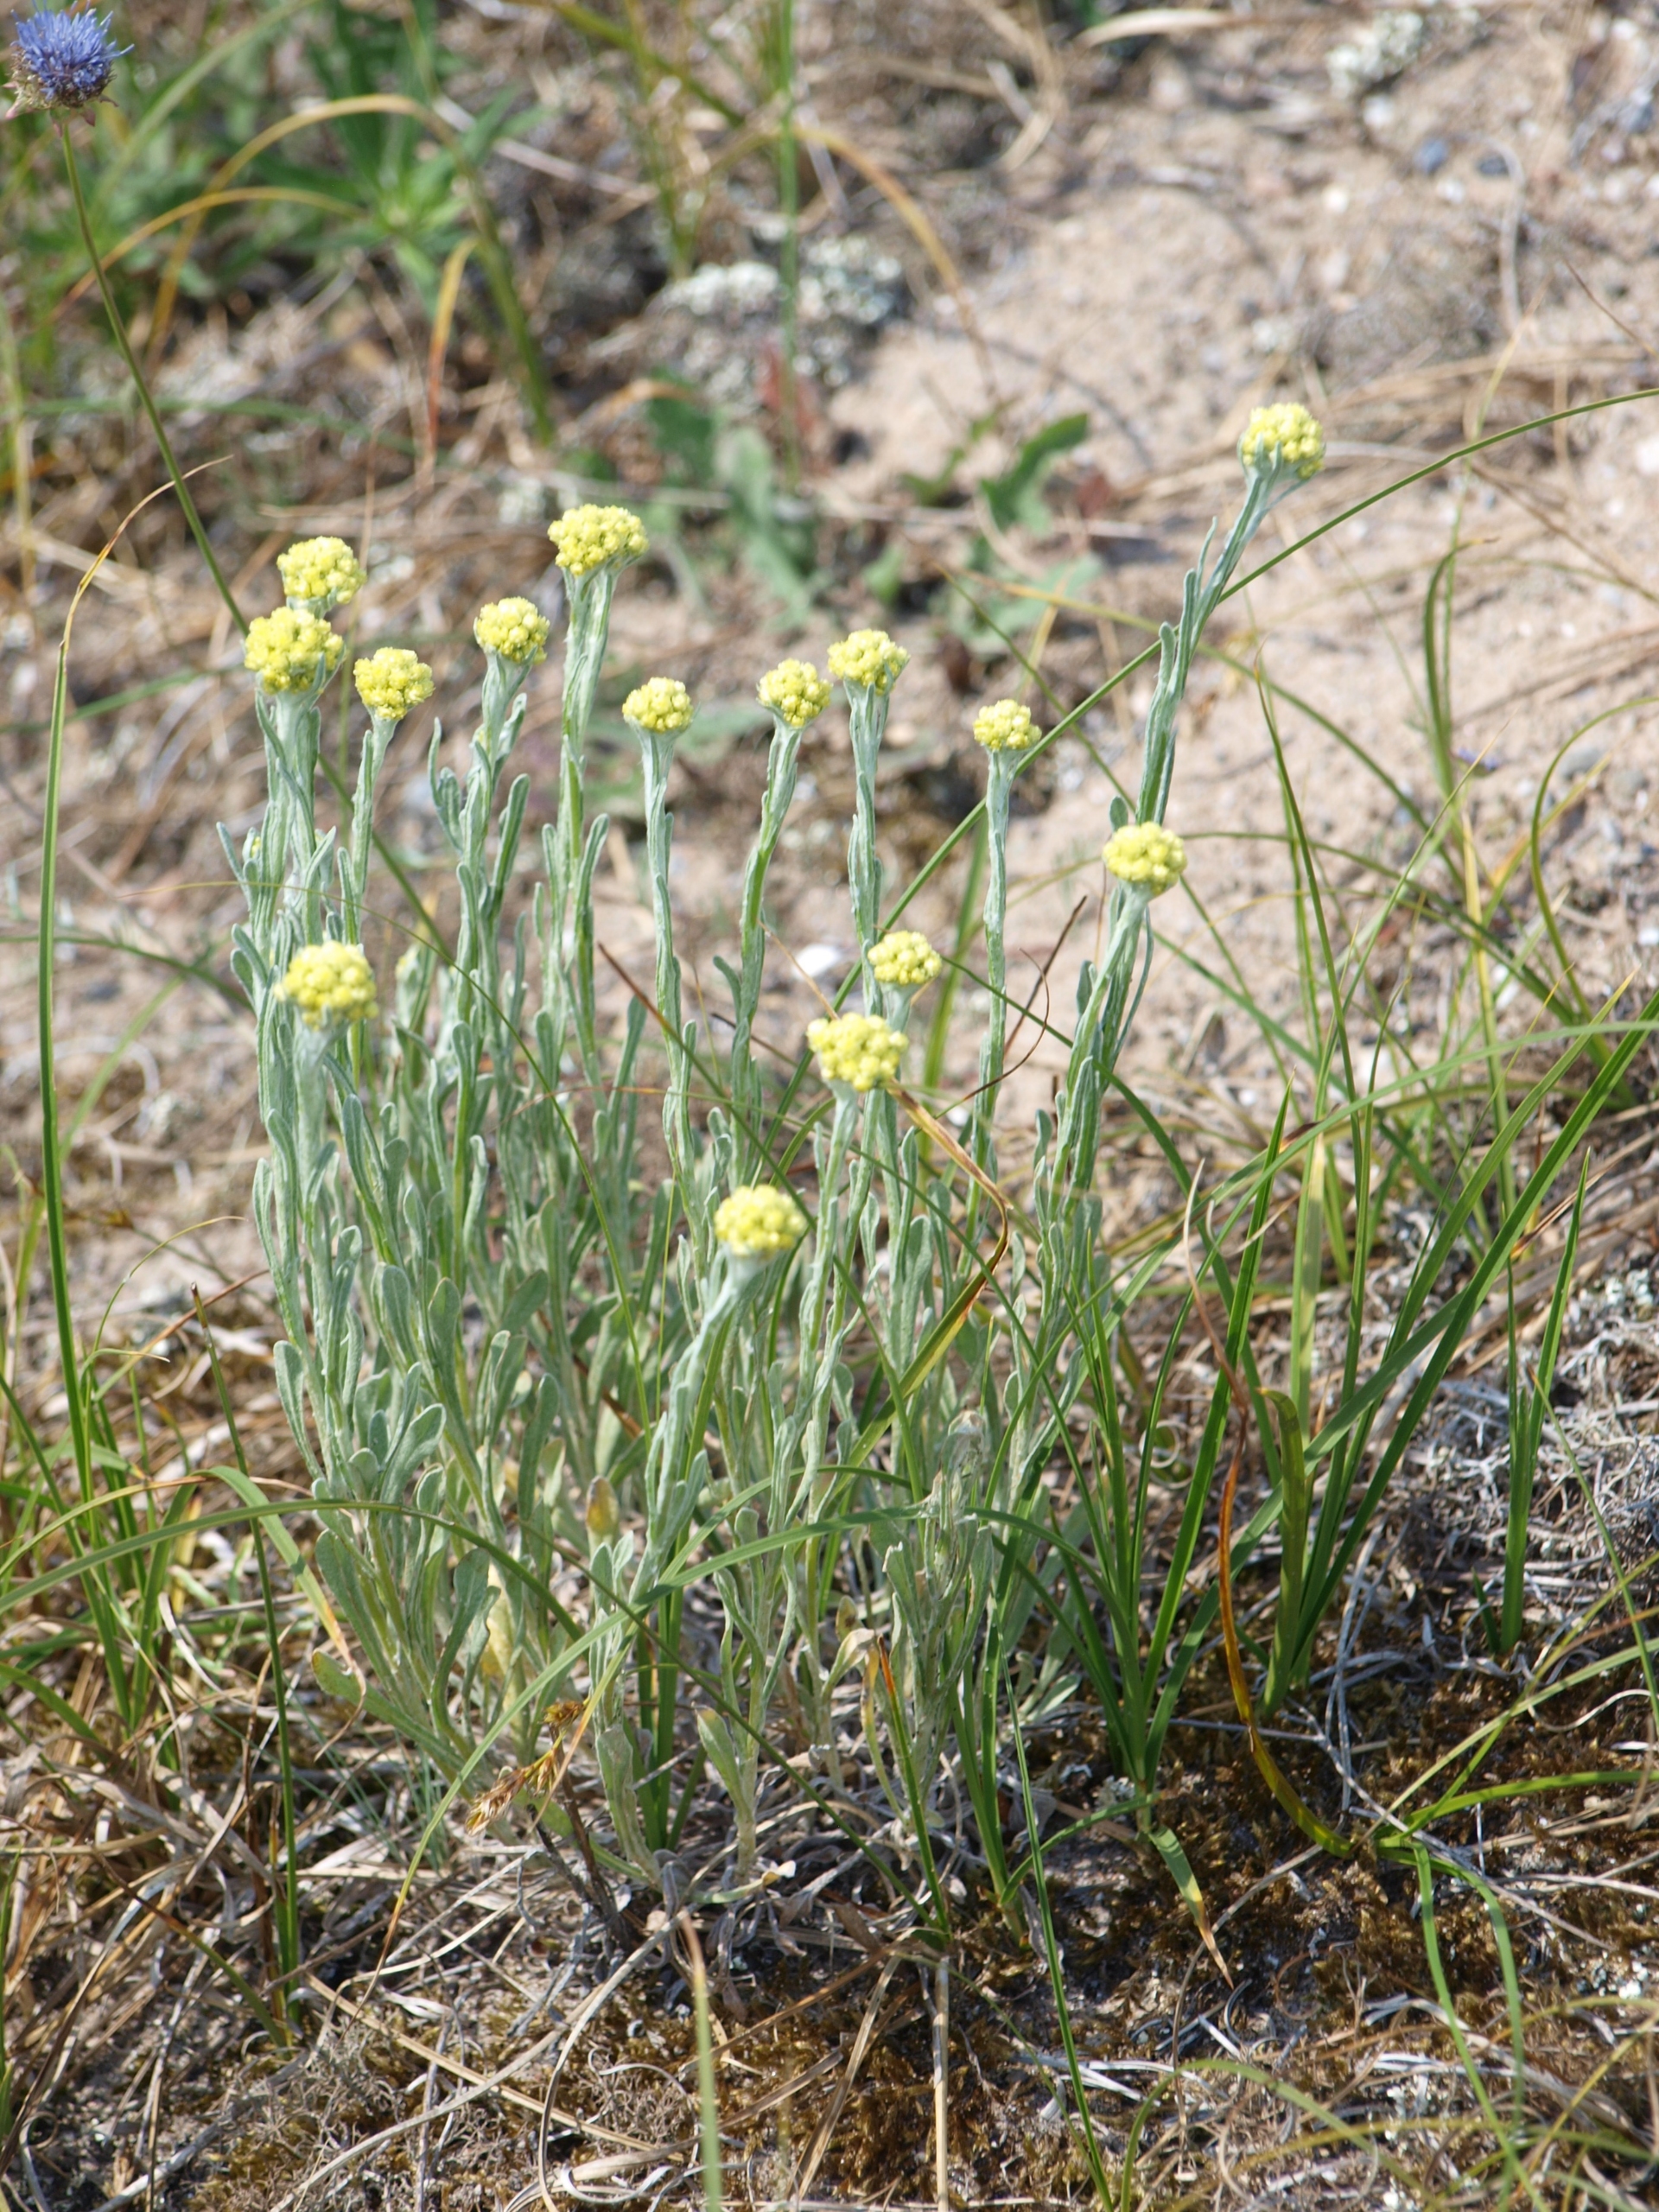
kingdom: Plantae
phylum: Tracheophyta
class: Magnoliopsida
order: Asterales
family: Asteraceae
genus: Helichrysum
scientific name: Helichrysum arenarium
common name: Gul evighedsblomst
